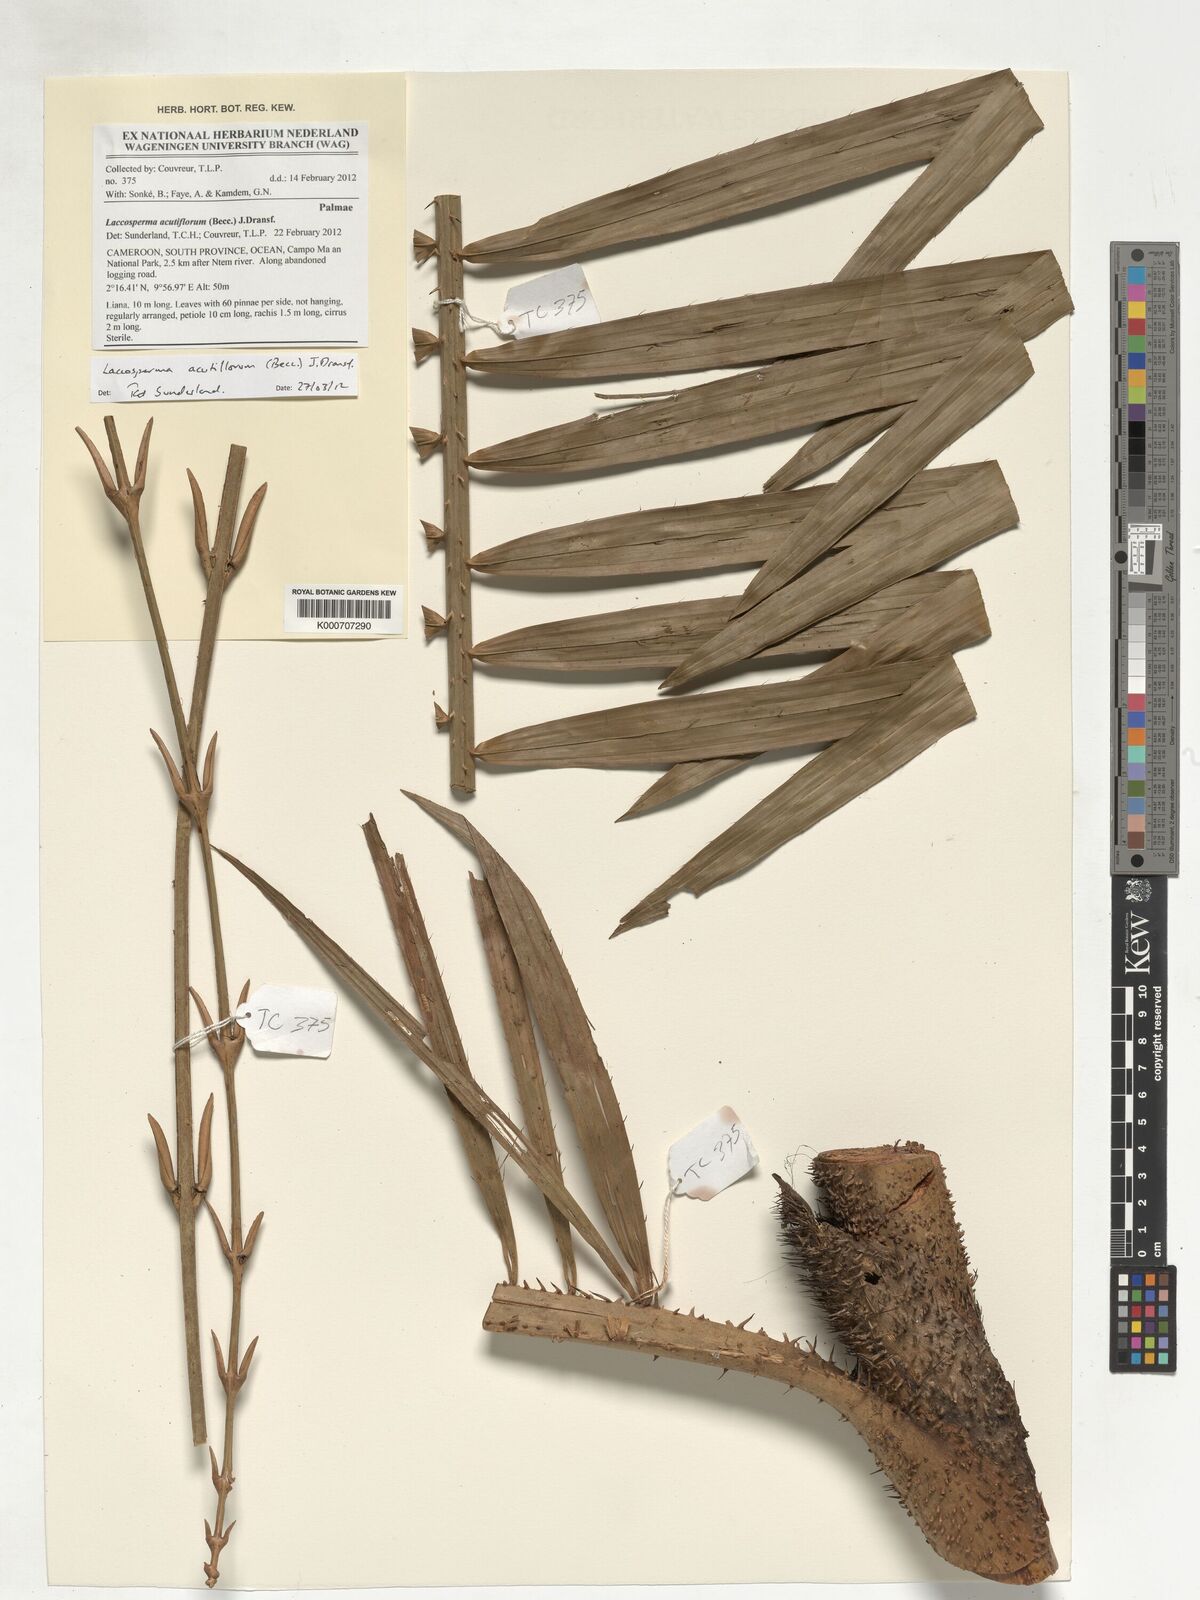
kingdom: Plantae
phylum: Tracheophyta
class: Liliopsida
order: Arecales
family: Arecaceae
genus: Laccosperma
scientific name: Laccosperma acutiflorum
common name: Rattan
